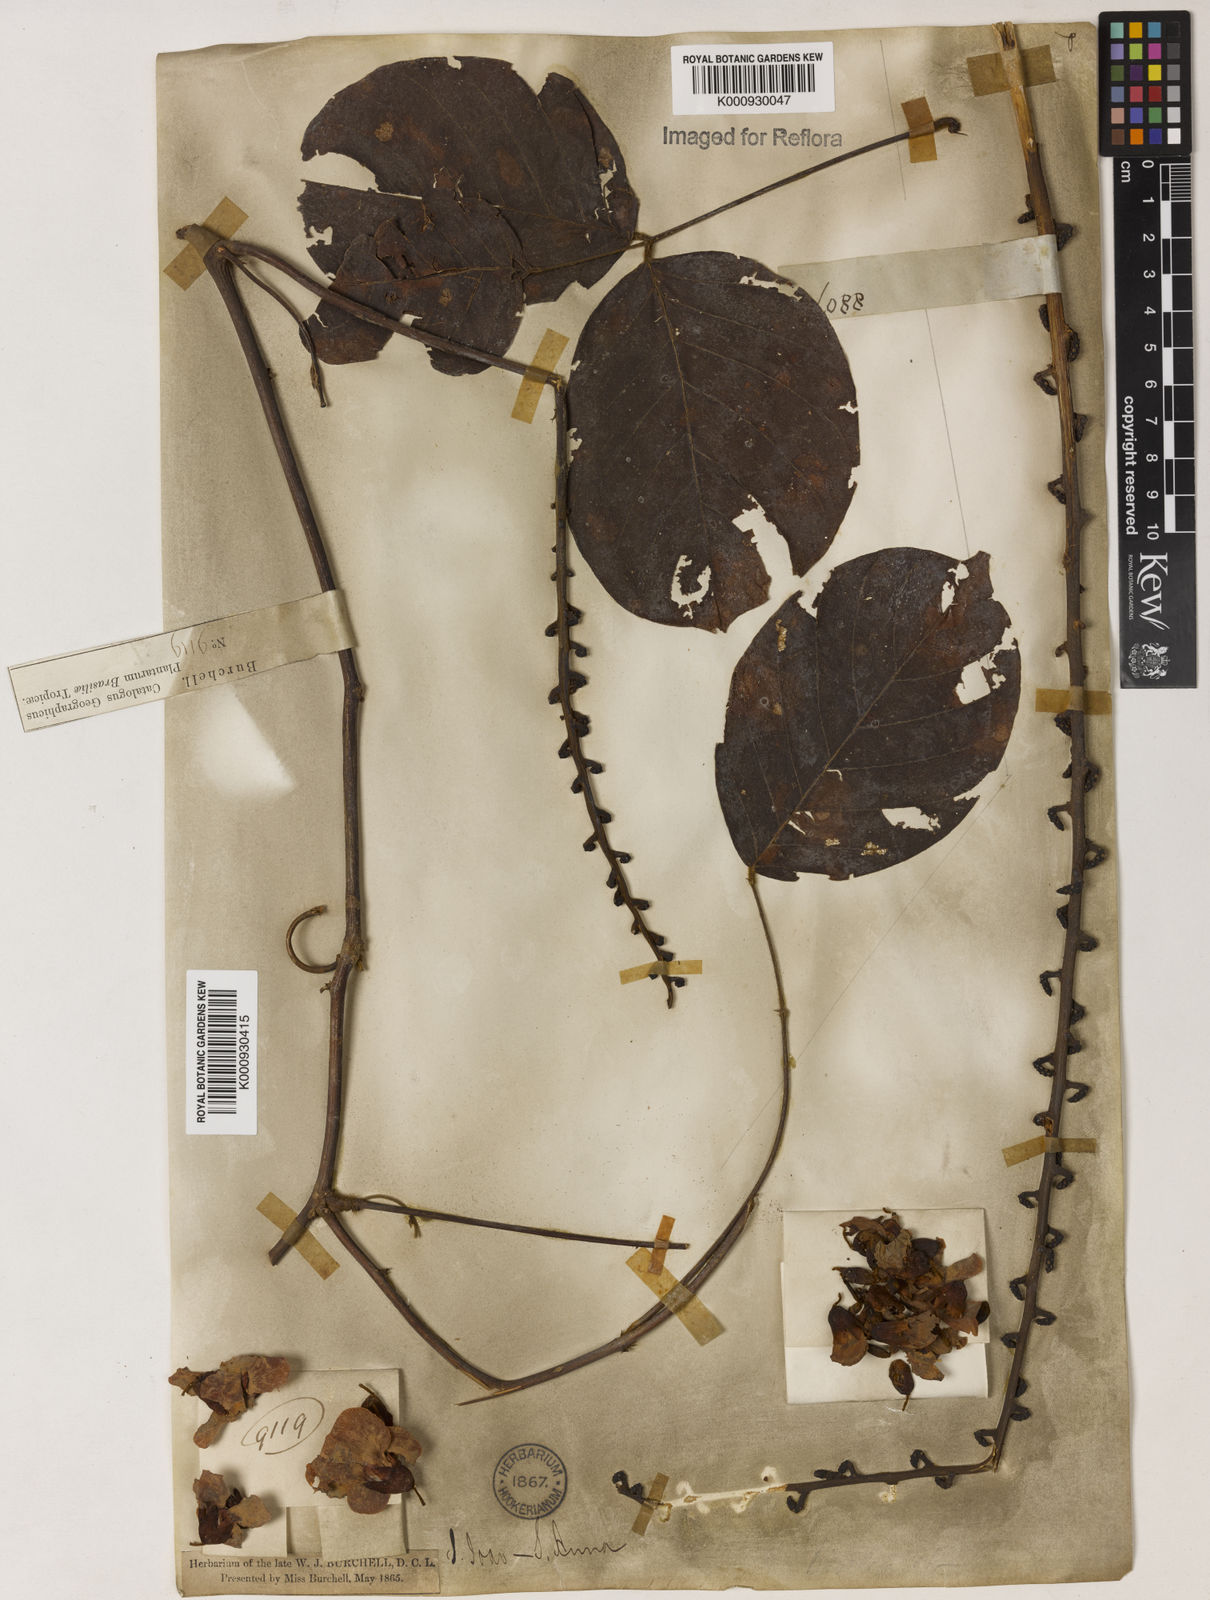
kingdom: Plantae
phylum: Tracheophyta
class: Magnoliopsida
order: Fabales
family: Fabaceae
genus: Macropsychanthus
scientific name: Macropsychanthus megacarpus
